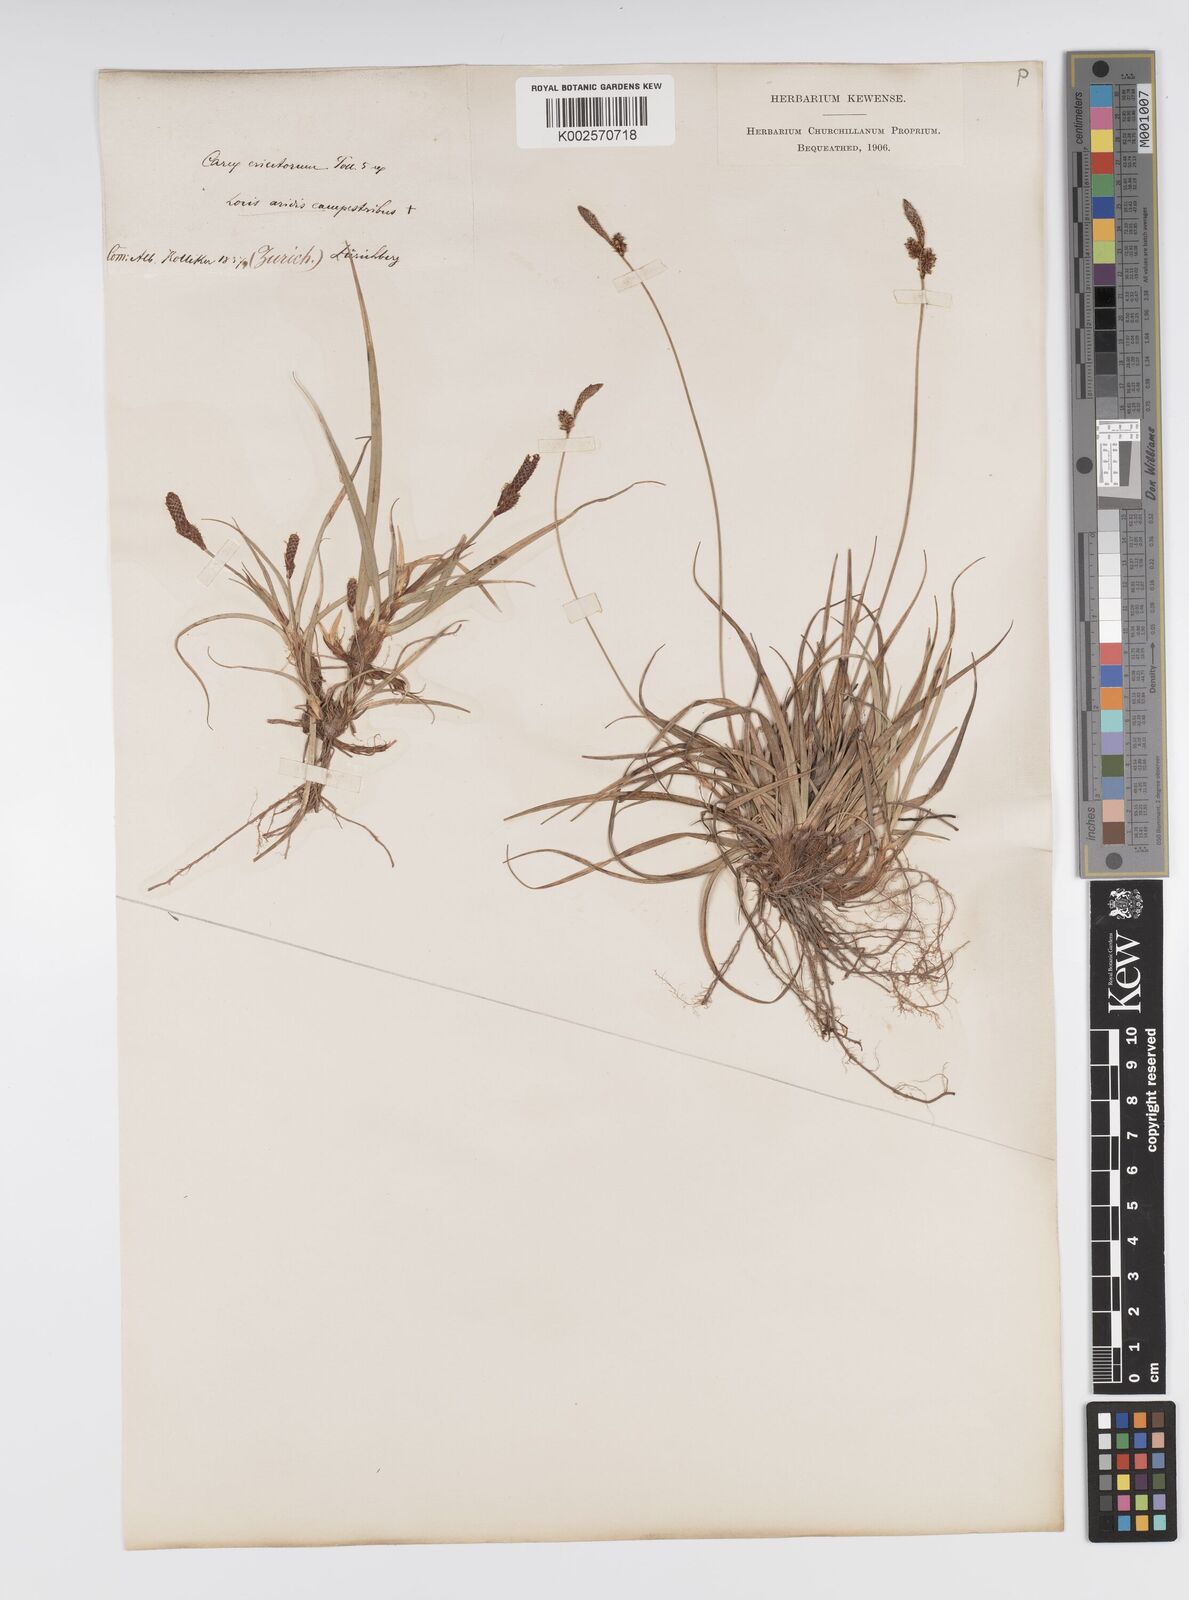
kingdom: Plantae
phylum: Tracheophyta
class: Liliopsida
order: Poales
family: Cyperaceae
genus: Carex
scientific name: Carex ericetorum
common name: Rare spring-sedge
